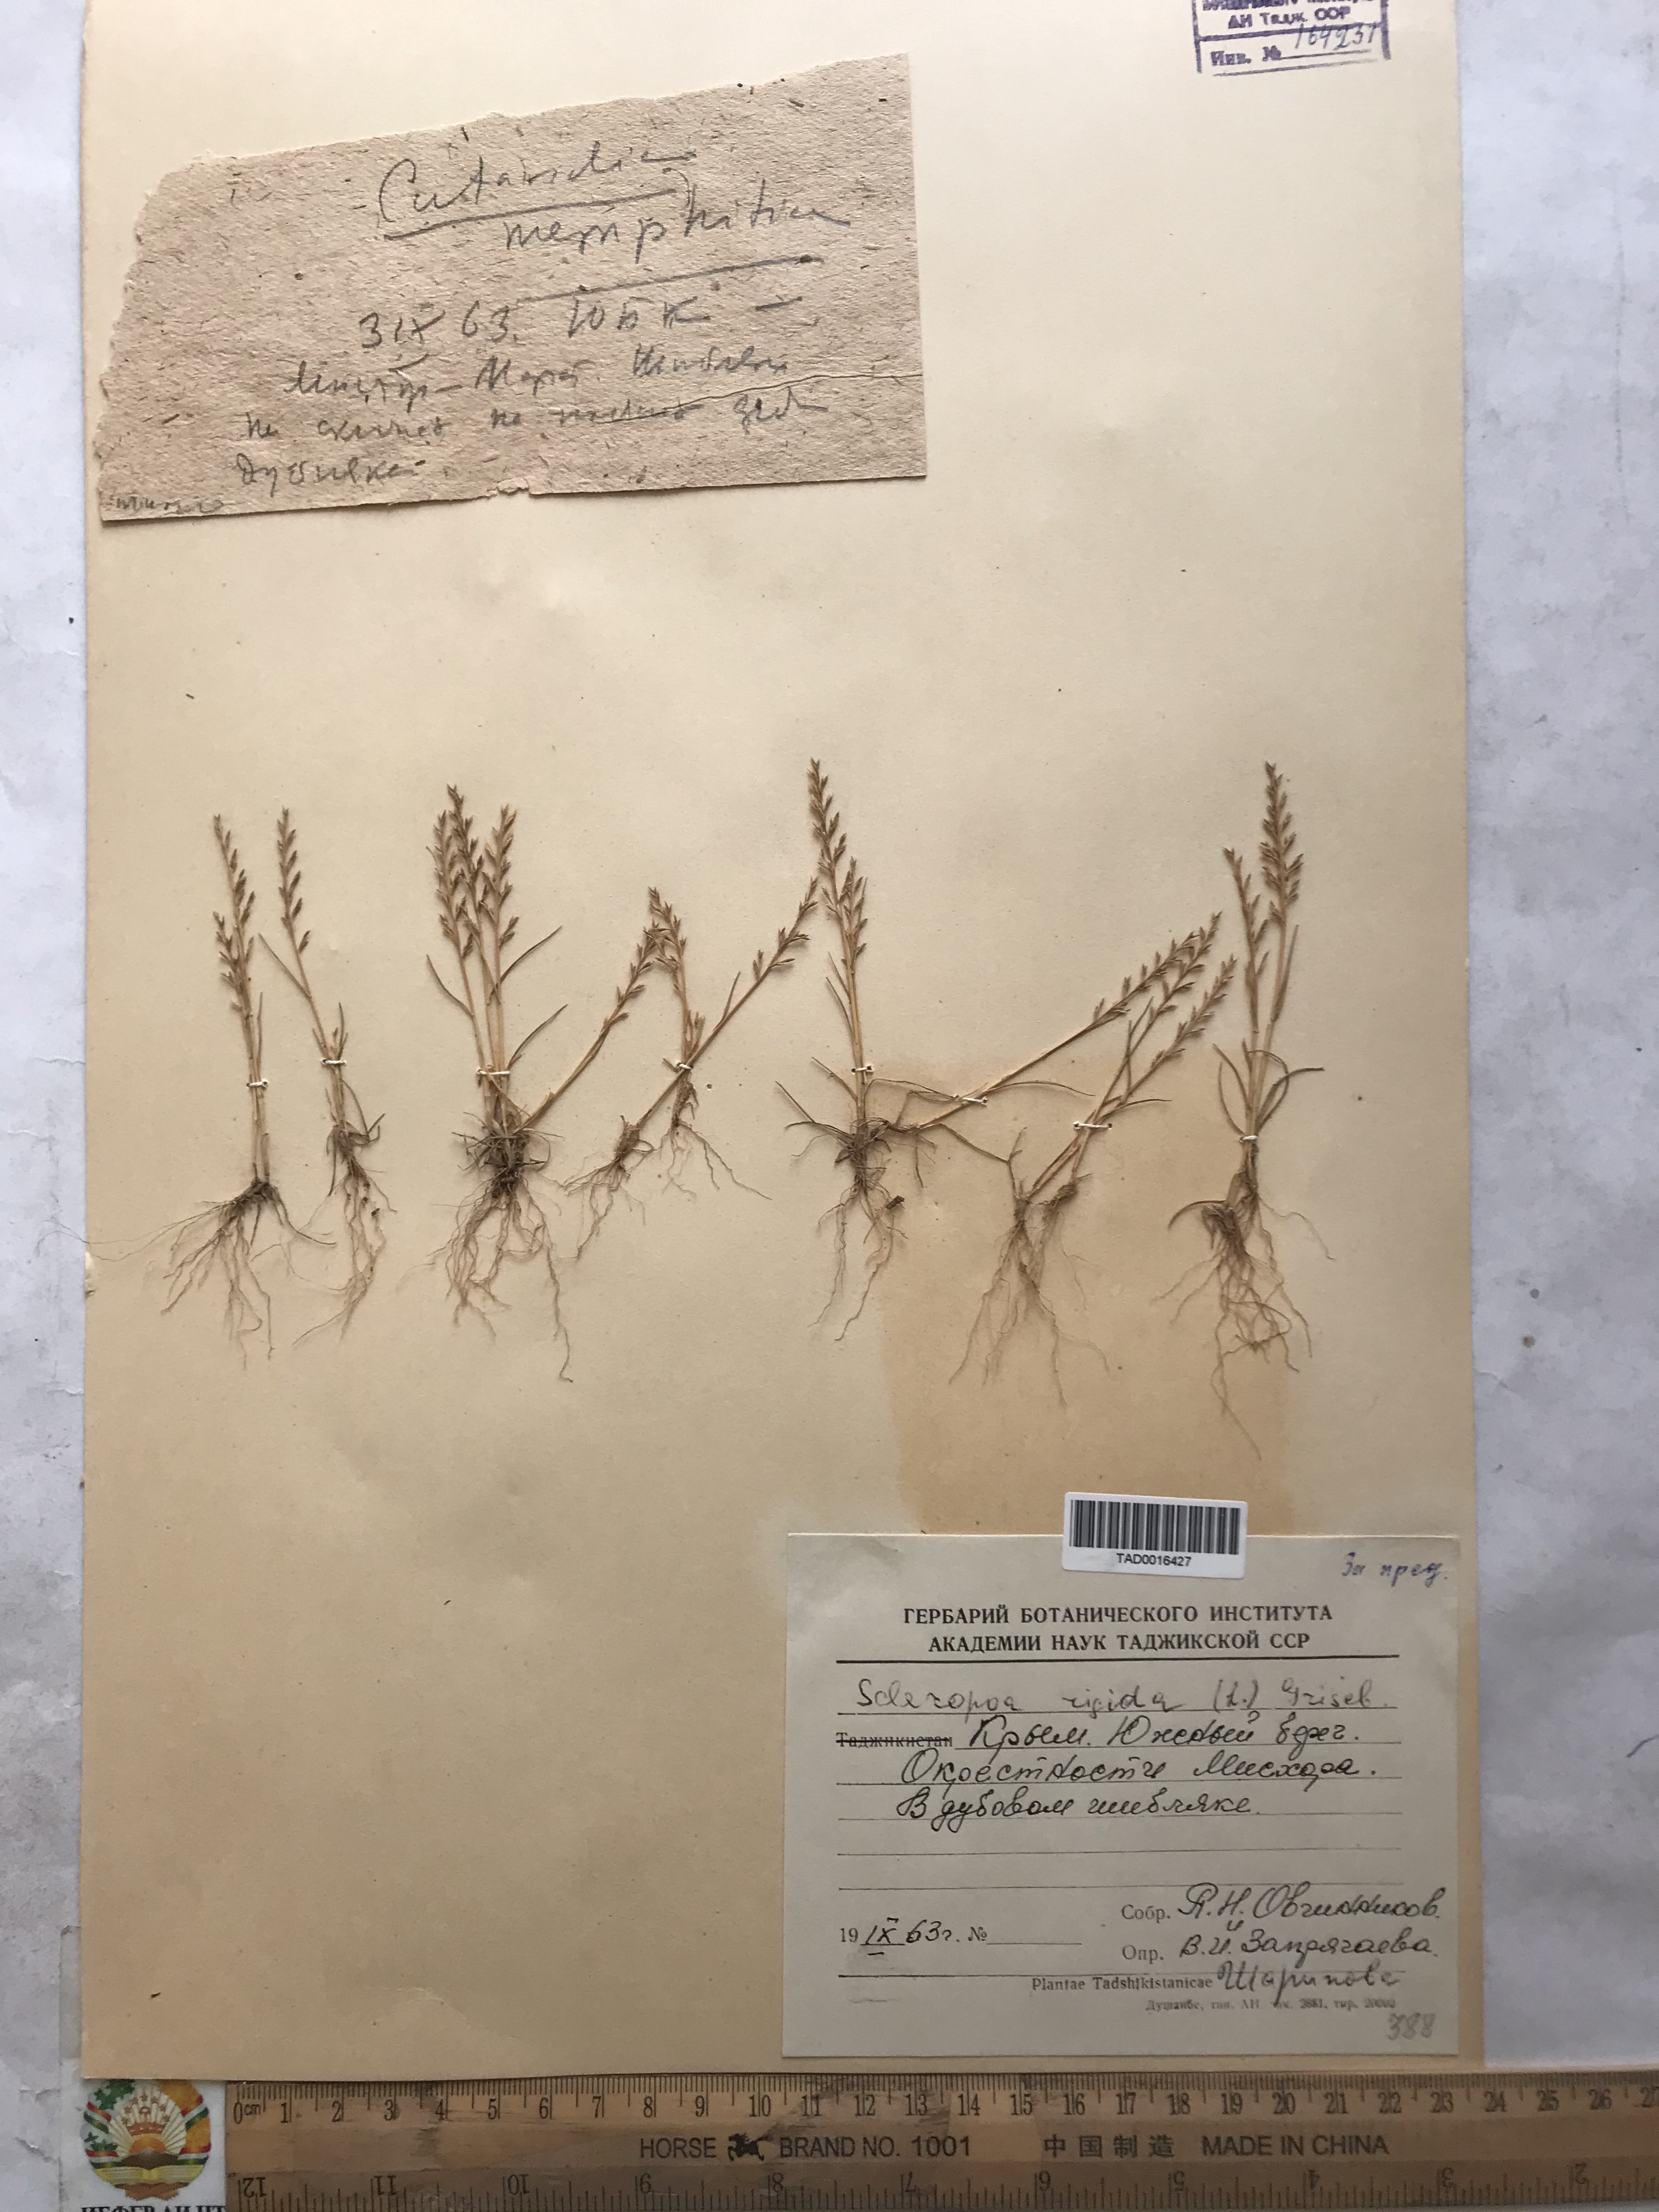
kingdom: Plantae
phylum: Tracheophyta
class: Liliopsida
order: Poales
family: Poaceae
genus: Catapodium
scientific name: Catapodium rigidum
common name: Fern-grass
